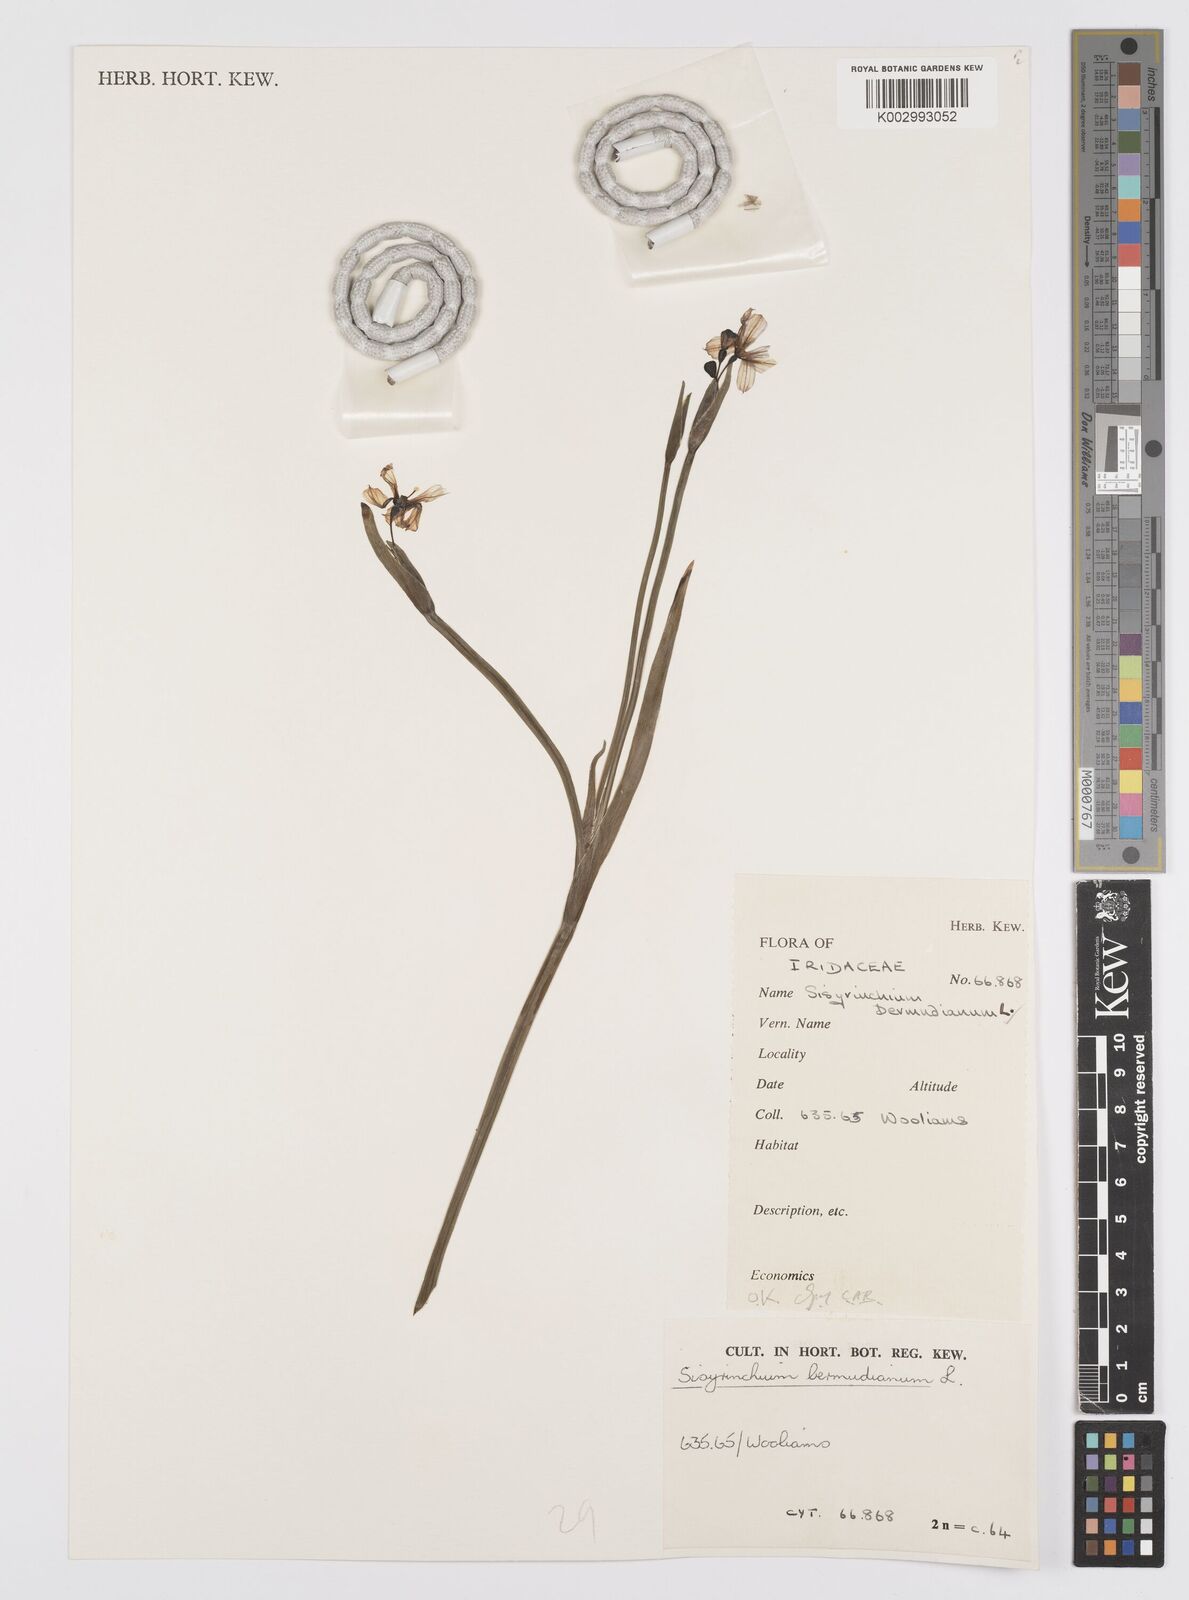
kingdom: Plantae
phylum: Tracheophyta
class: Liliopsida
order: Asparagales
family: Iridaceae
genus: Sisyrinchium
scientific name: Sisyrinchium bermudiana
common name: Blue-eyed-grass
